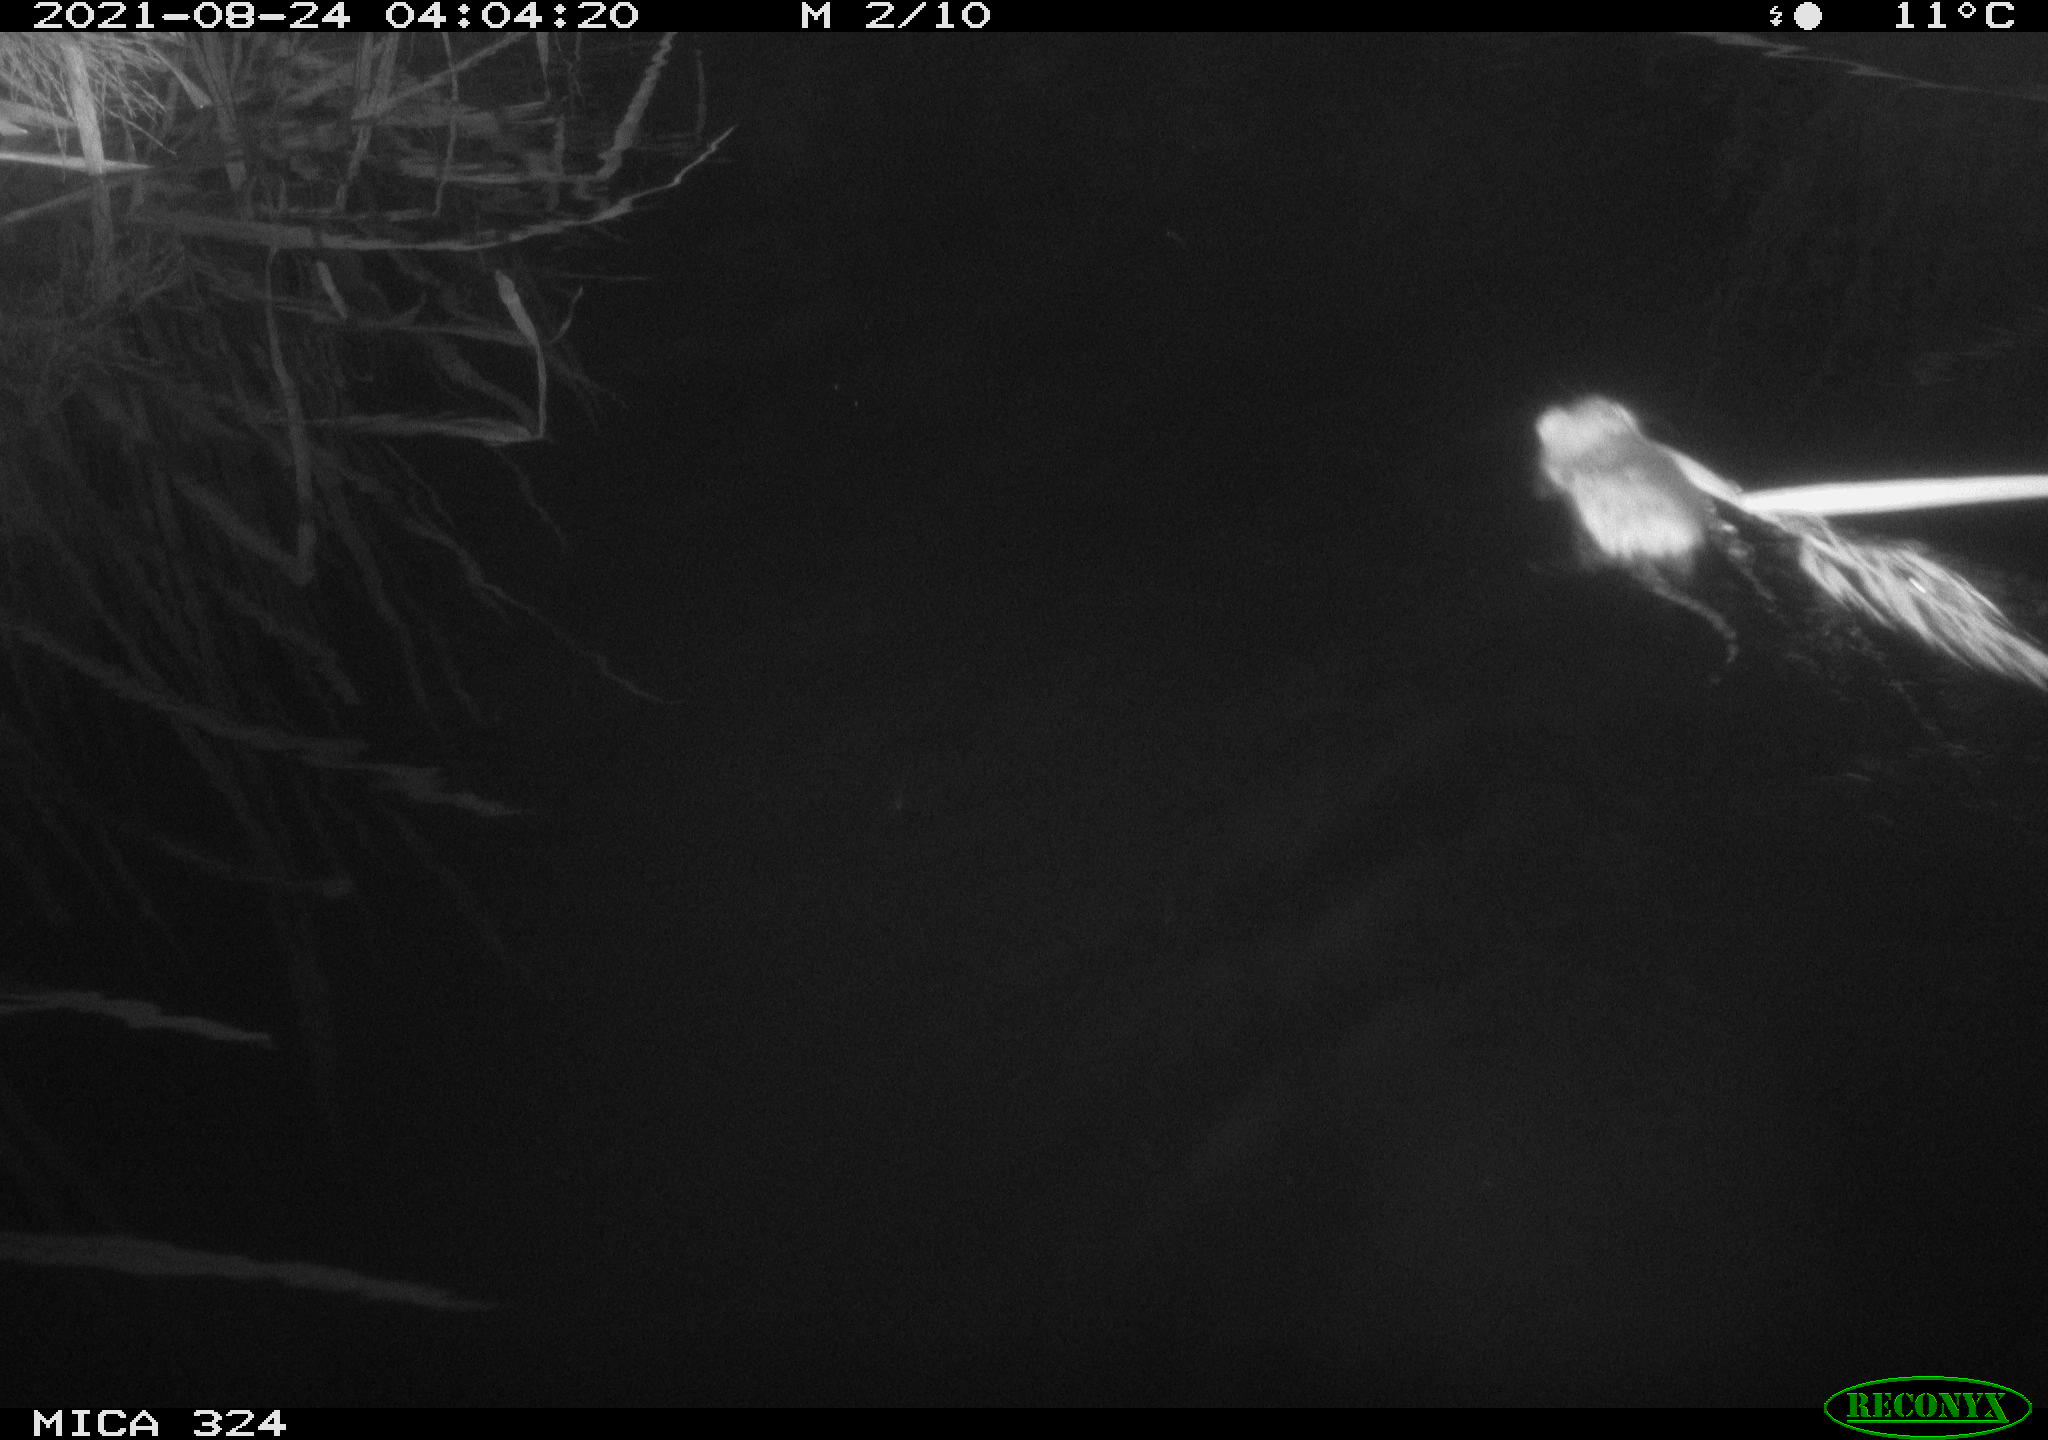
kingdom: Animalia
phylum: Chordata
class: Mammalia
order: Rodentia
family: Cricetidae
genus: Ondatra
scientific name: Ondatra zibethicus
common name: Muskrat
